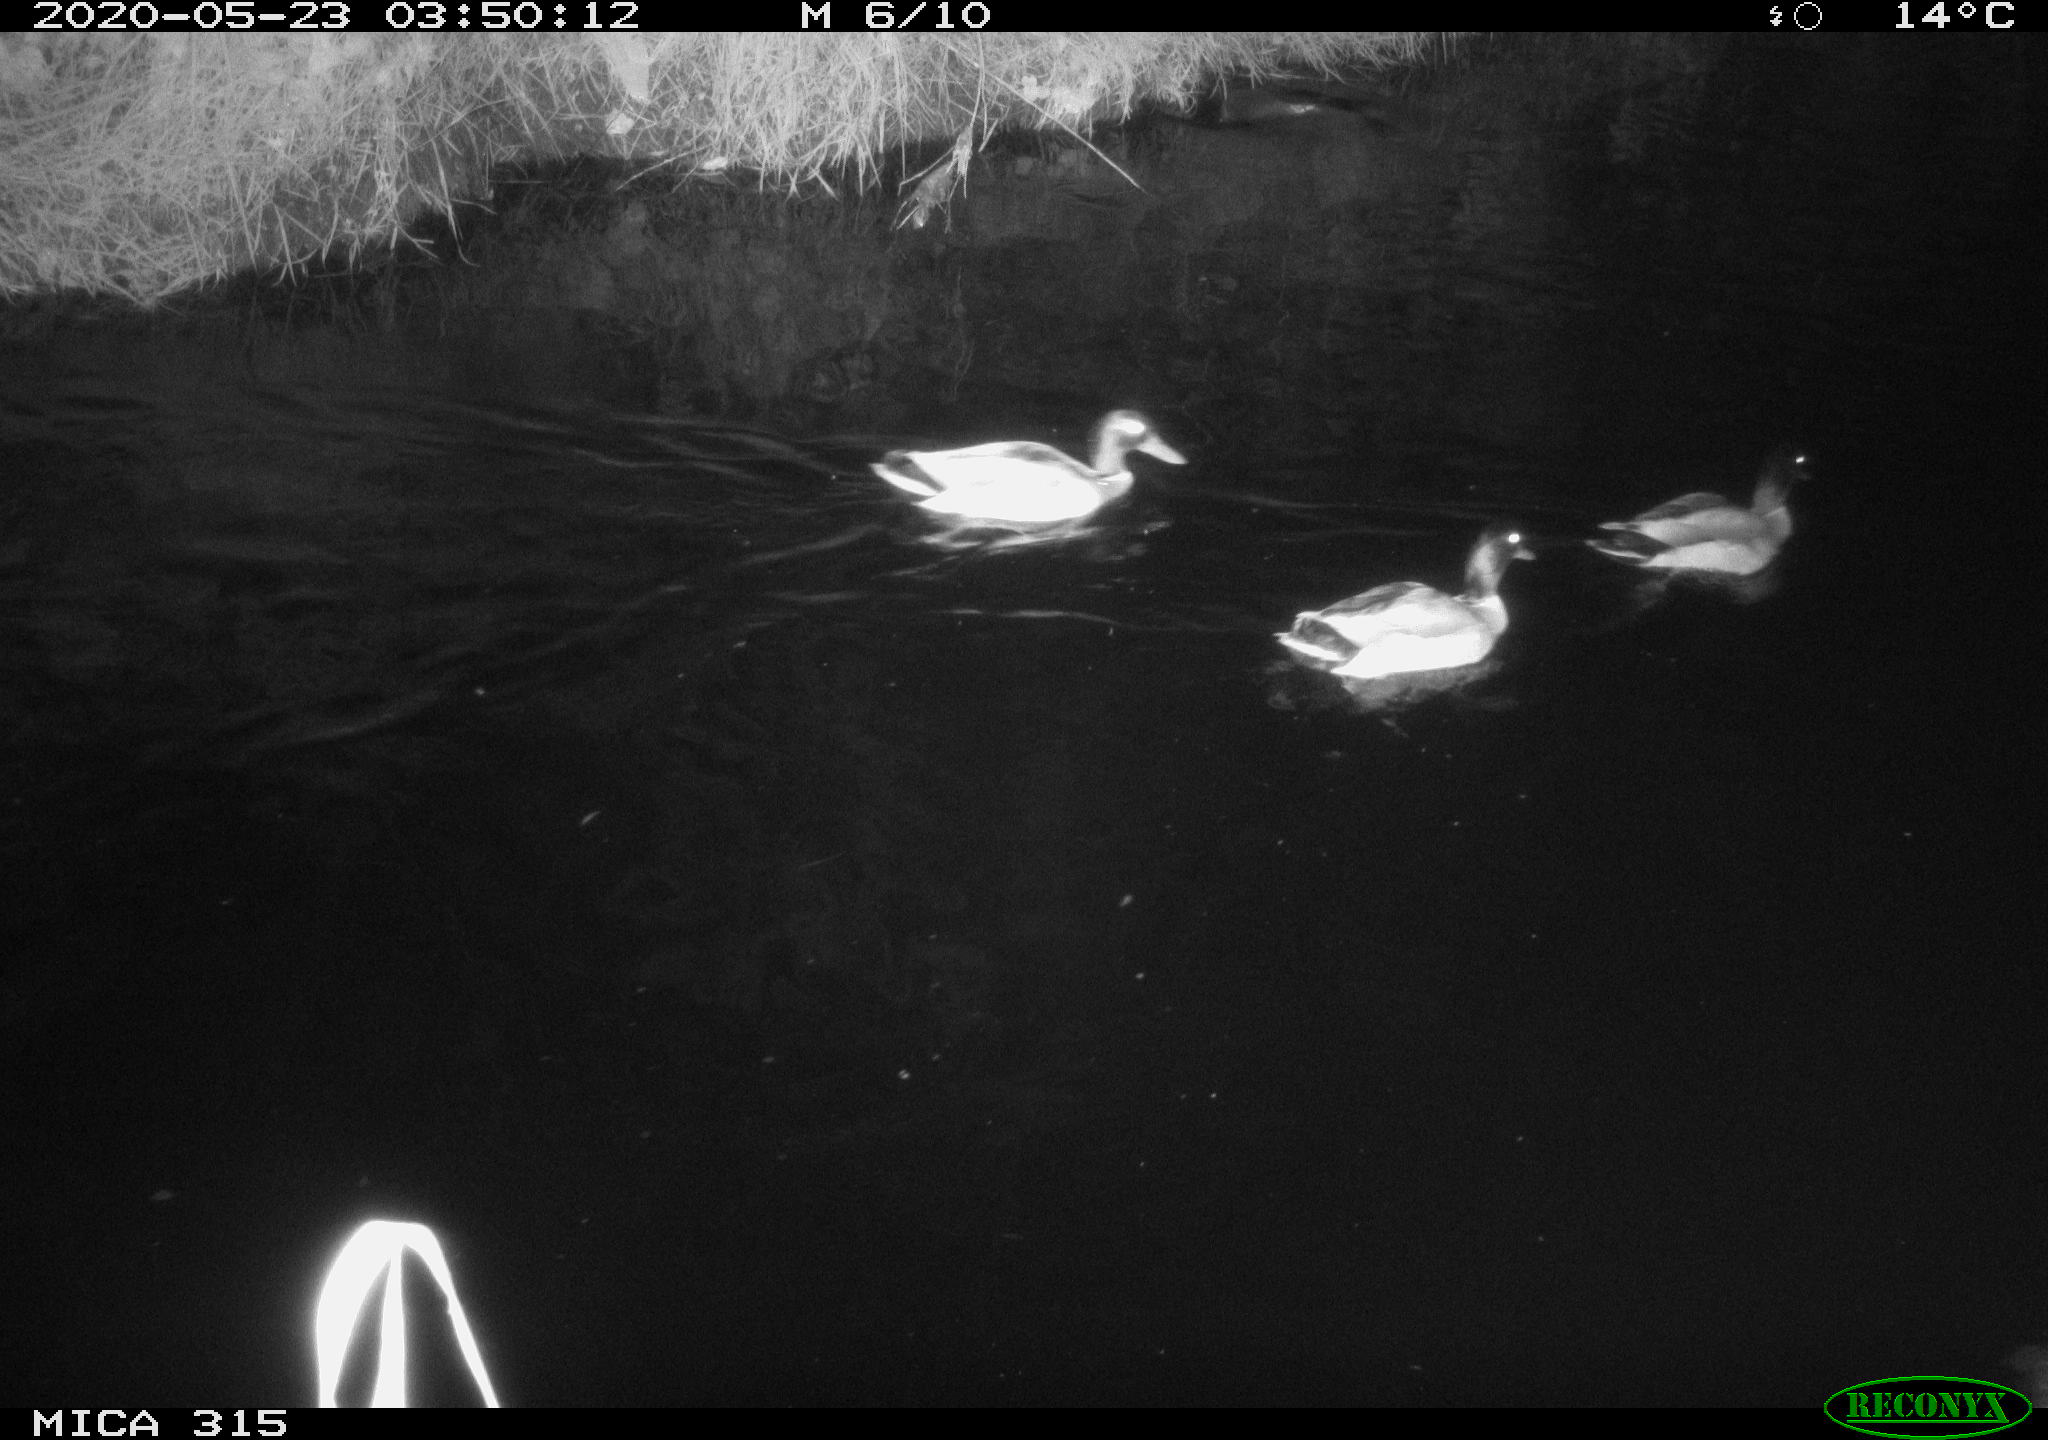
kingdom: Animalia
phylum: Chordata
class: Aves
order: Anseriformes
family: Anatidae
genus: Anas
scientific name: Anas platyrhynchos
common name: Mallard
